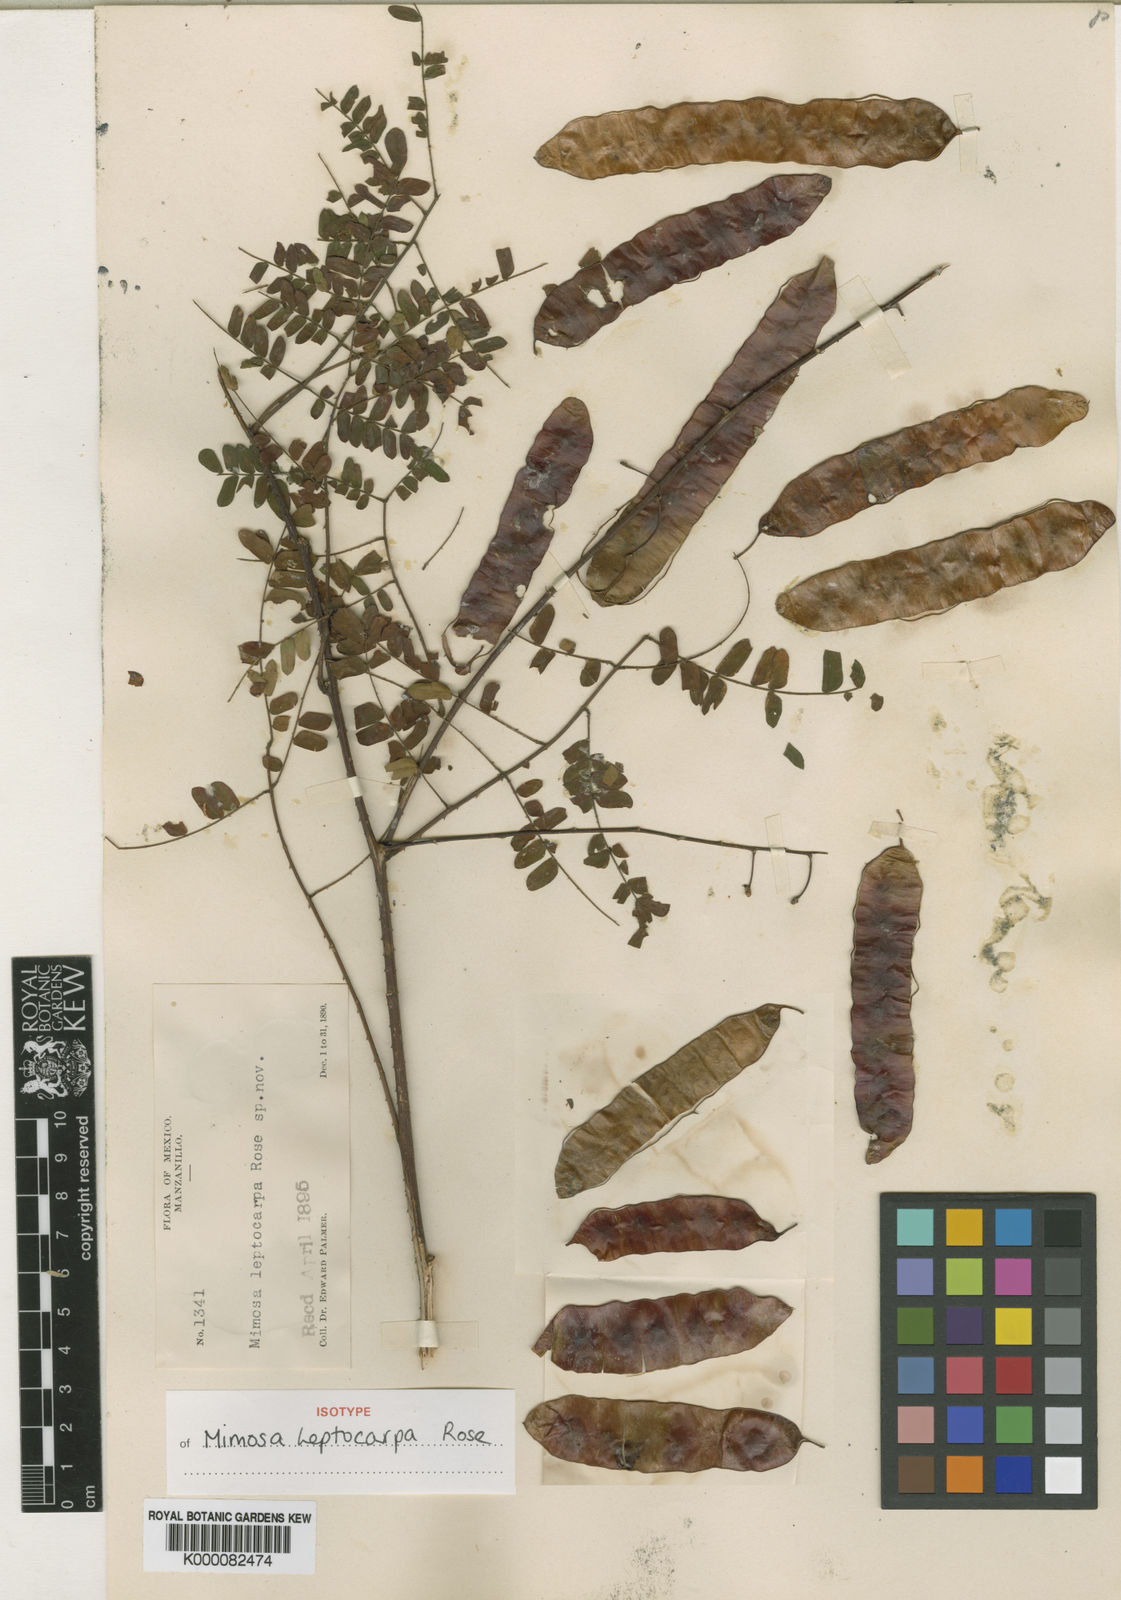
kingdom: Plantae
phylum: Tracheophyta
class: Magnoliopsida
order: Fabales
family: Fabaceae
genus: Mimosa
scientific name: Mimosa leptocarpa
